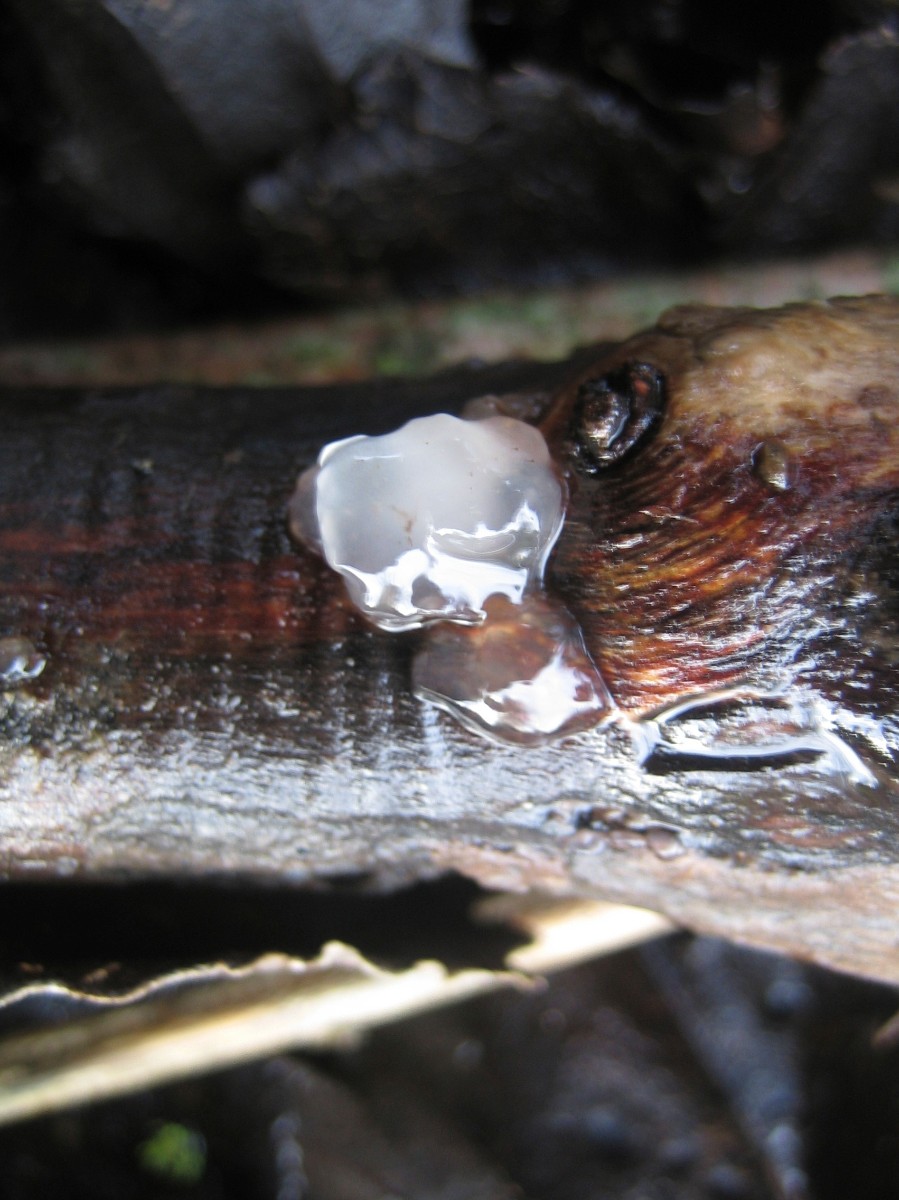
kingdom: Fungi
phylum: Basidiomycota
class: Agaricomycetes
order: Auriculariales
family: Hyaloriaceae
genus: Myxarium
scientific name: Myxarium nucleatum
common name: klar bævretop
